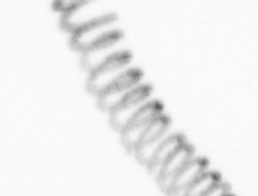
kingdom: Chromista
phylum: Ochrophyta
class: Bacillariophyceae
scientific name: Bacillariophyceae
